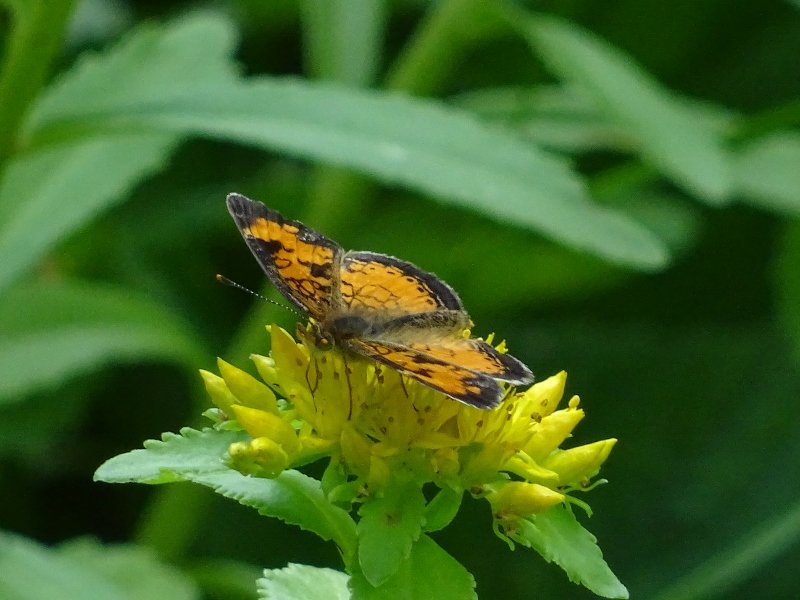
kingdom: Animalia
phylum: Arthropoda
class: Insecta
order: Lepidoptera
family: Nymphalidae
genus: Phyciodes
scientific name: Phyciodes tharos
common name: Northern Crescent
